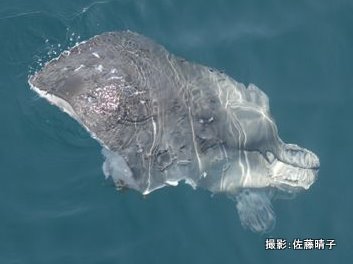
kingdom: Animalia
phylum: Chordata
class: Mammalia
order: Cetacea
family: Hyperoodontidae
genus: Berardius
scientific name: Berardius minimus
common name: Sato's beaked whale
